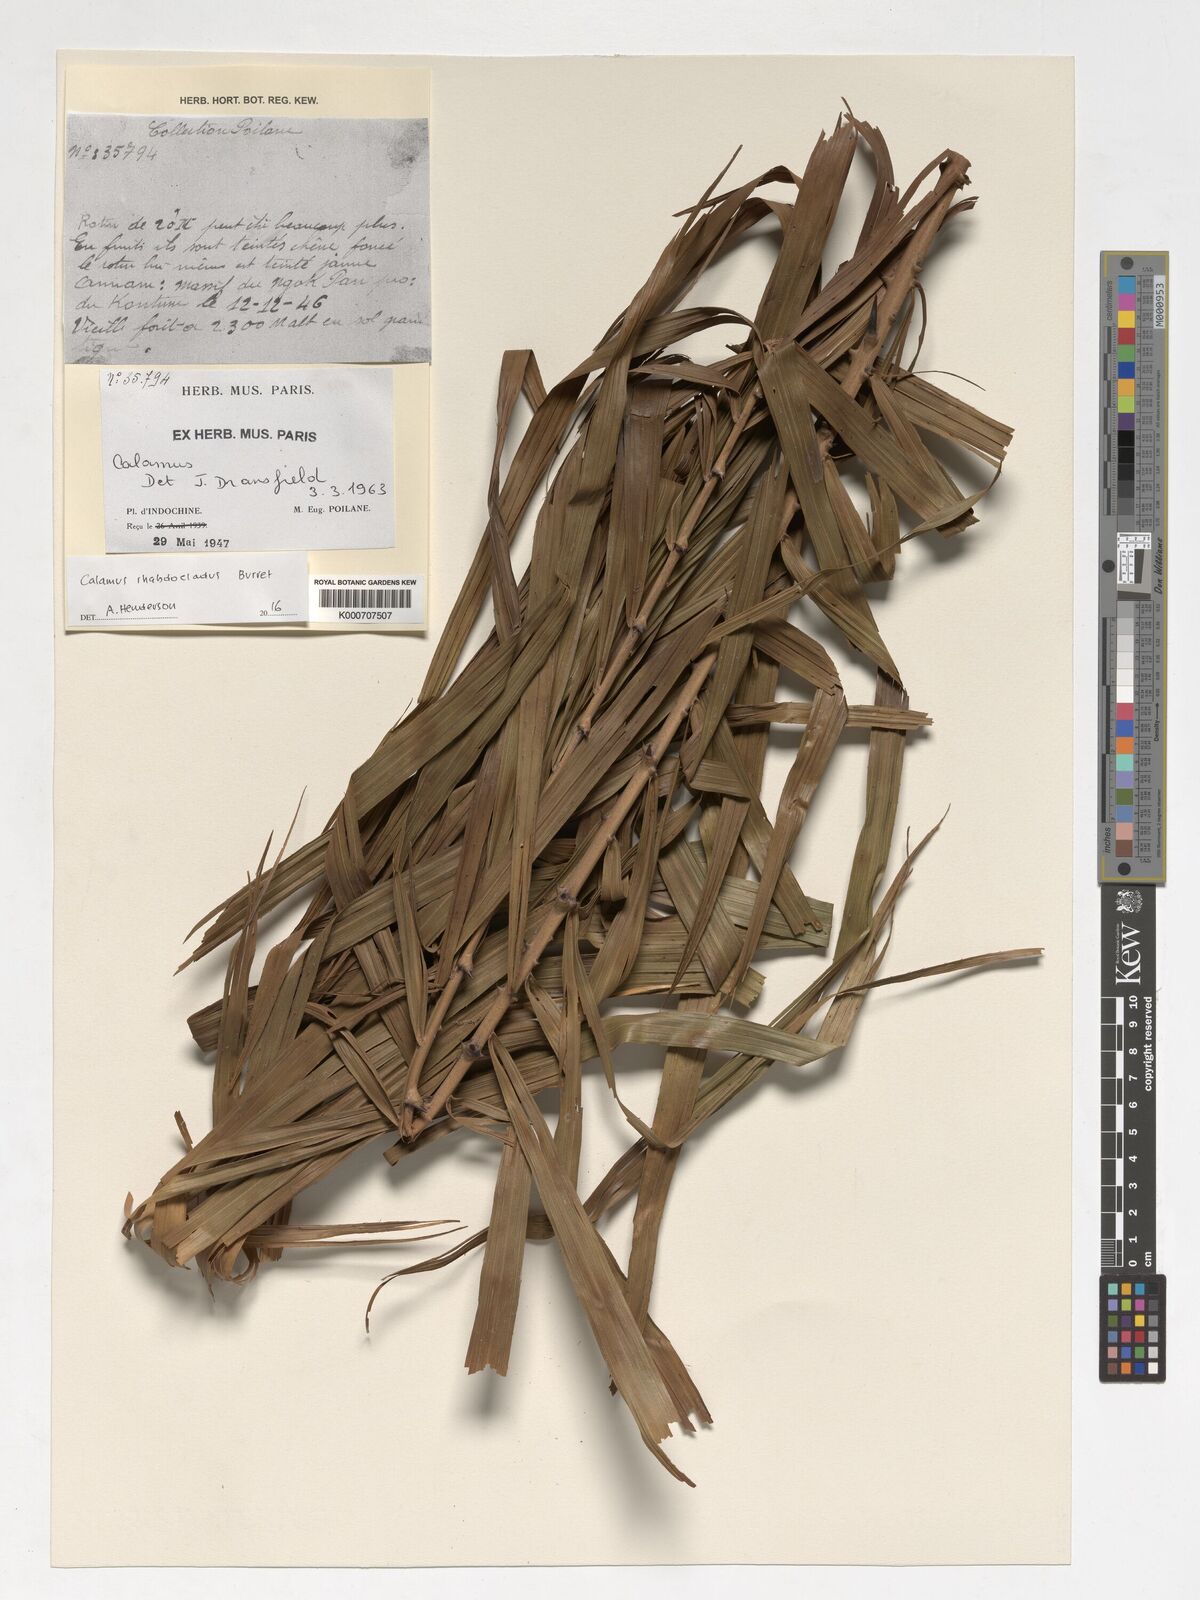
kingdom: Plantae
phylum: Tracheophyta
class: Liliopsida
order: Arecales
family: Arecaceae
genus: Calamus
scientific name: Calamus rhabdocladus
